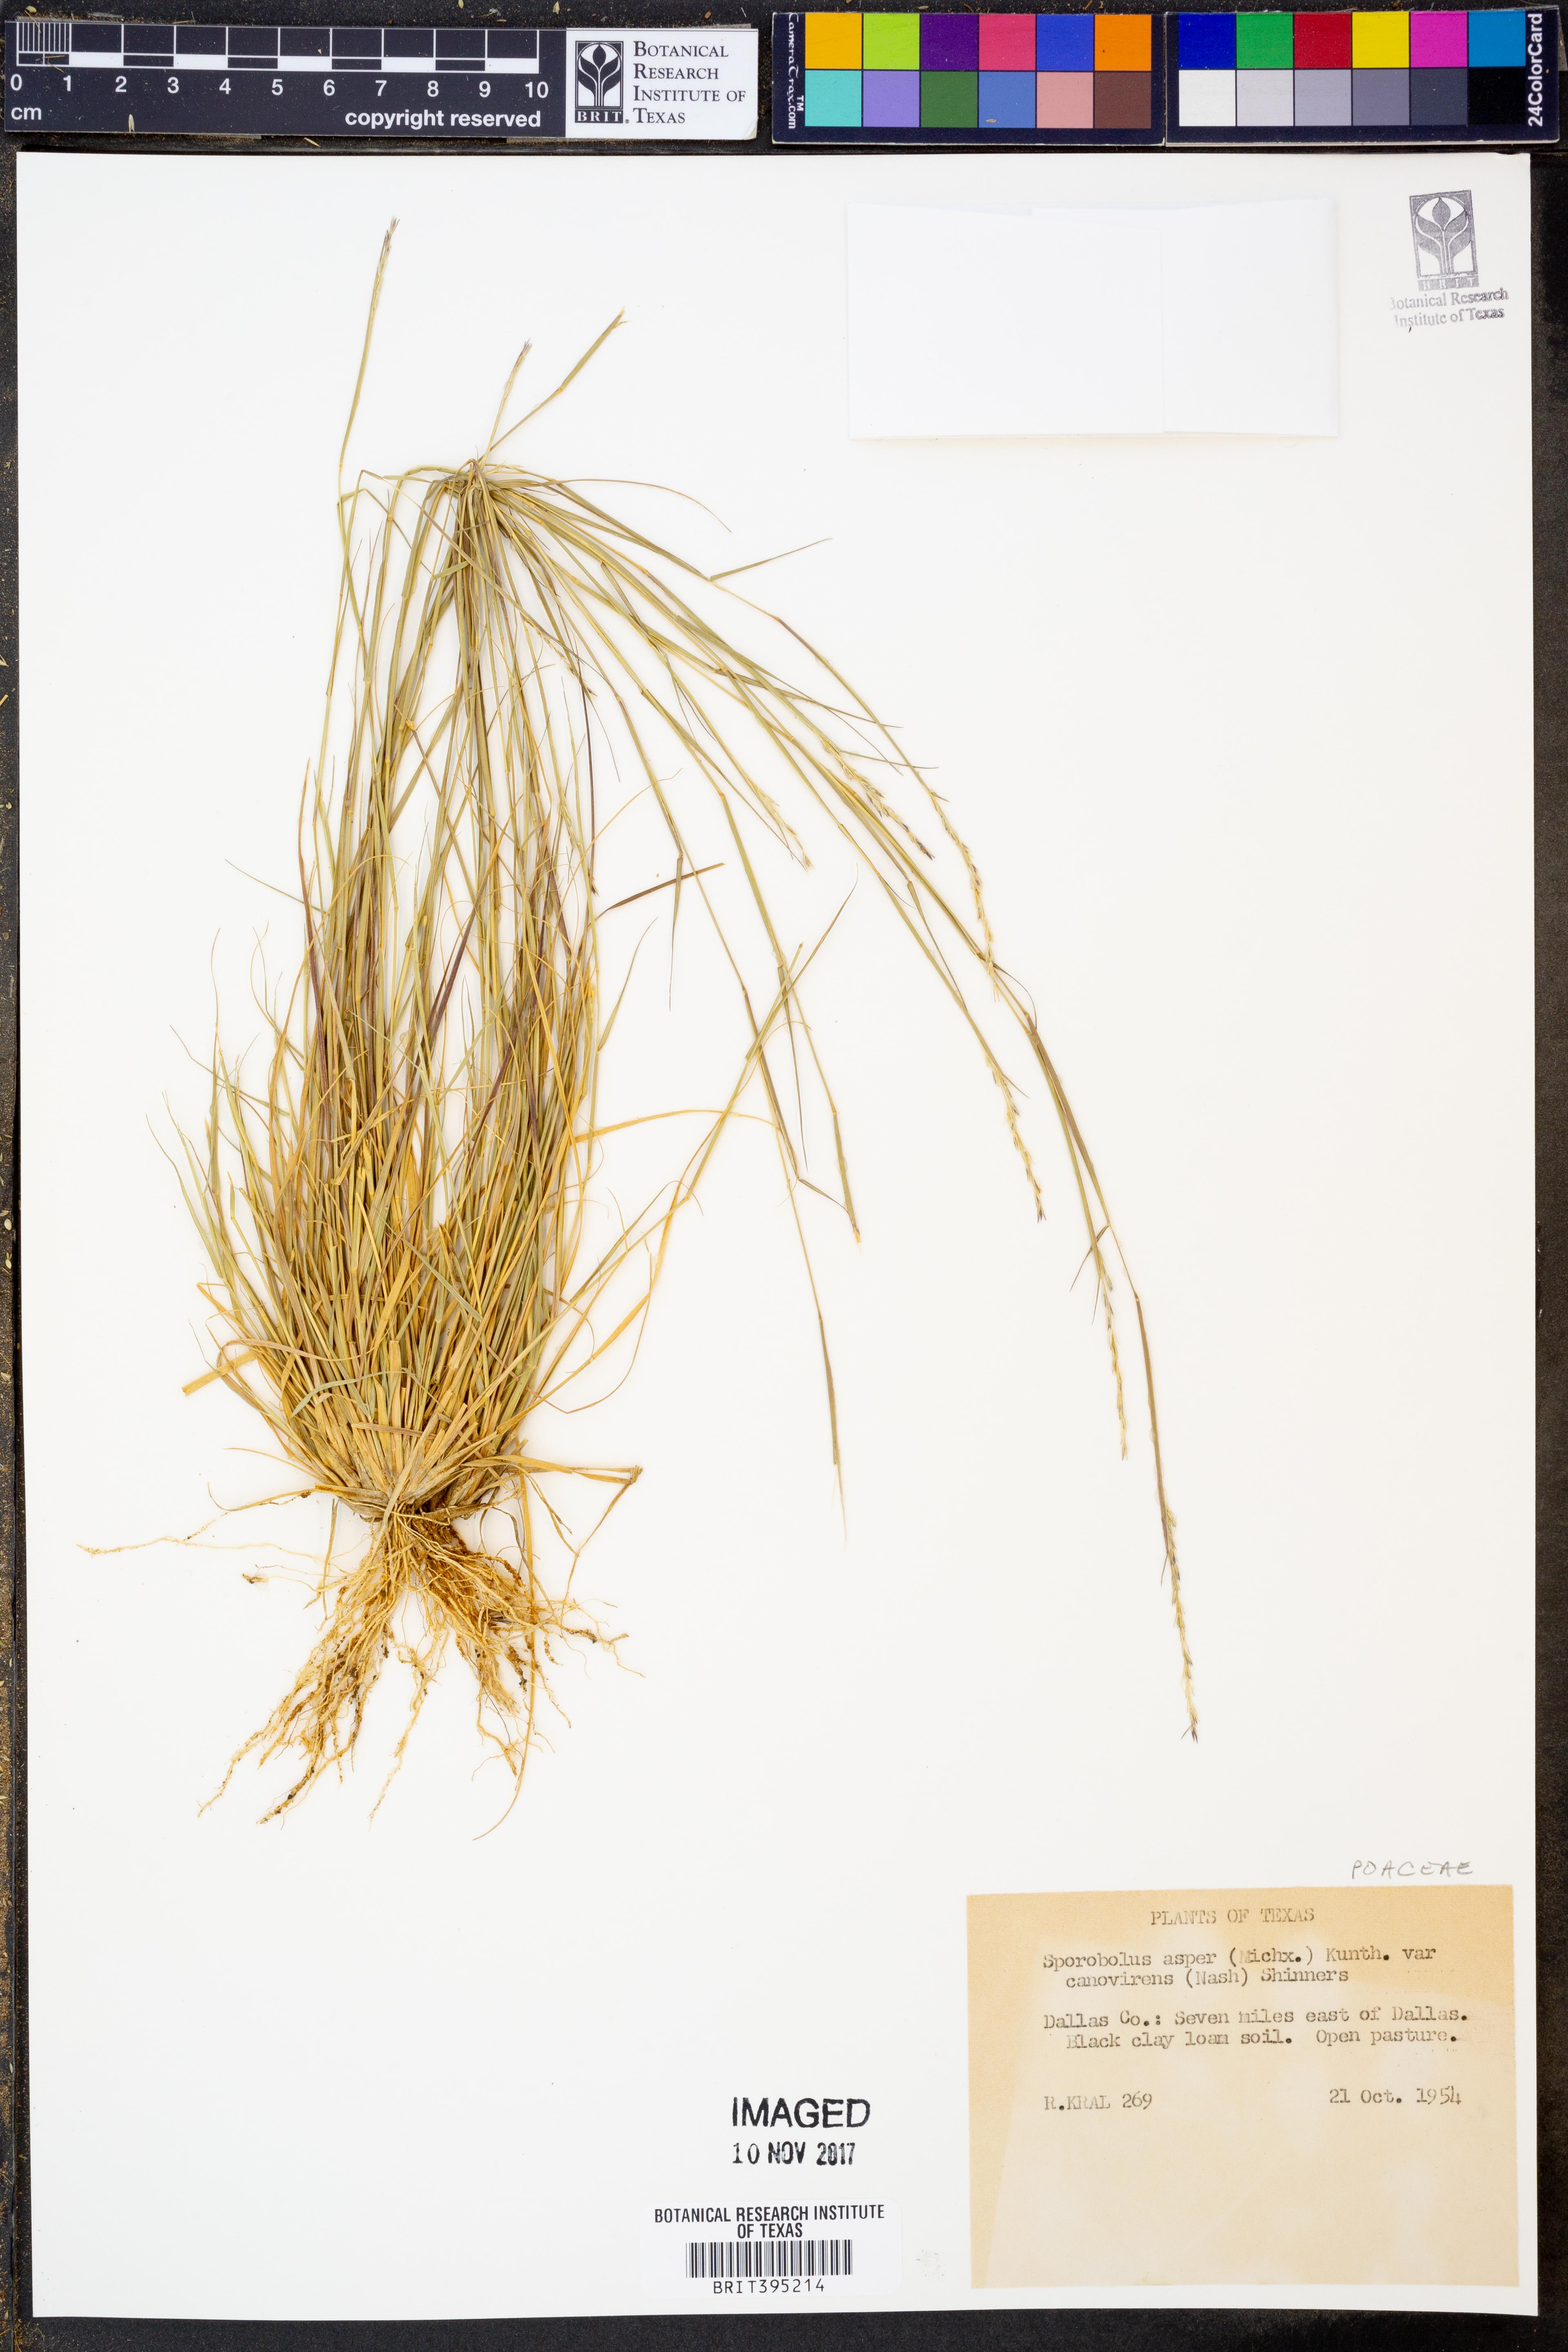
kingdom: Plantae
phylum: Tracheophyta
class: Liliopsida
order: Poales
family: Poaceae
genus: Sporobolus
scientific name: Sporobolus clandestinus
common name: Hidden dropseed
